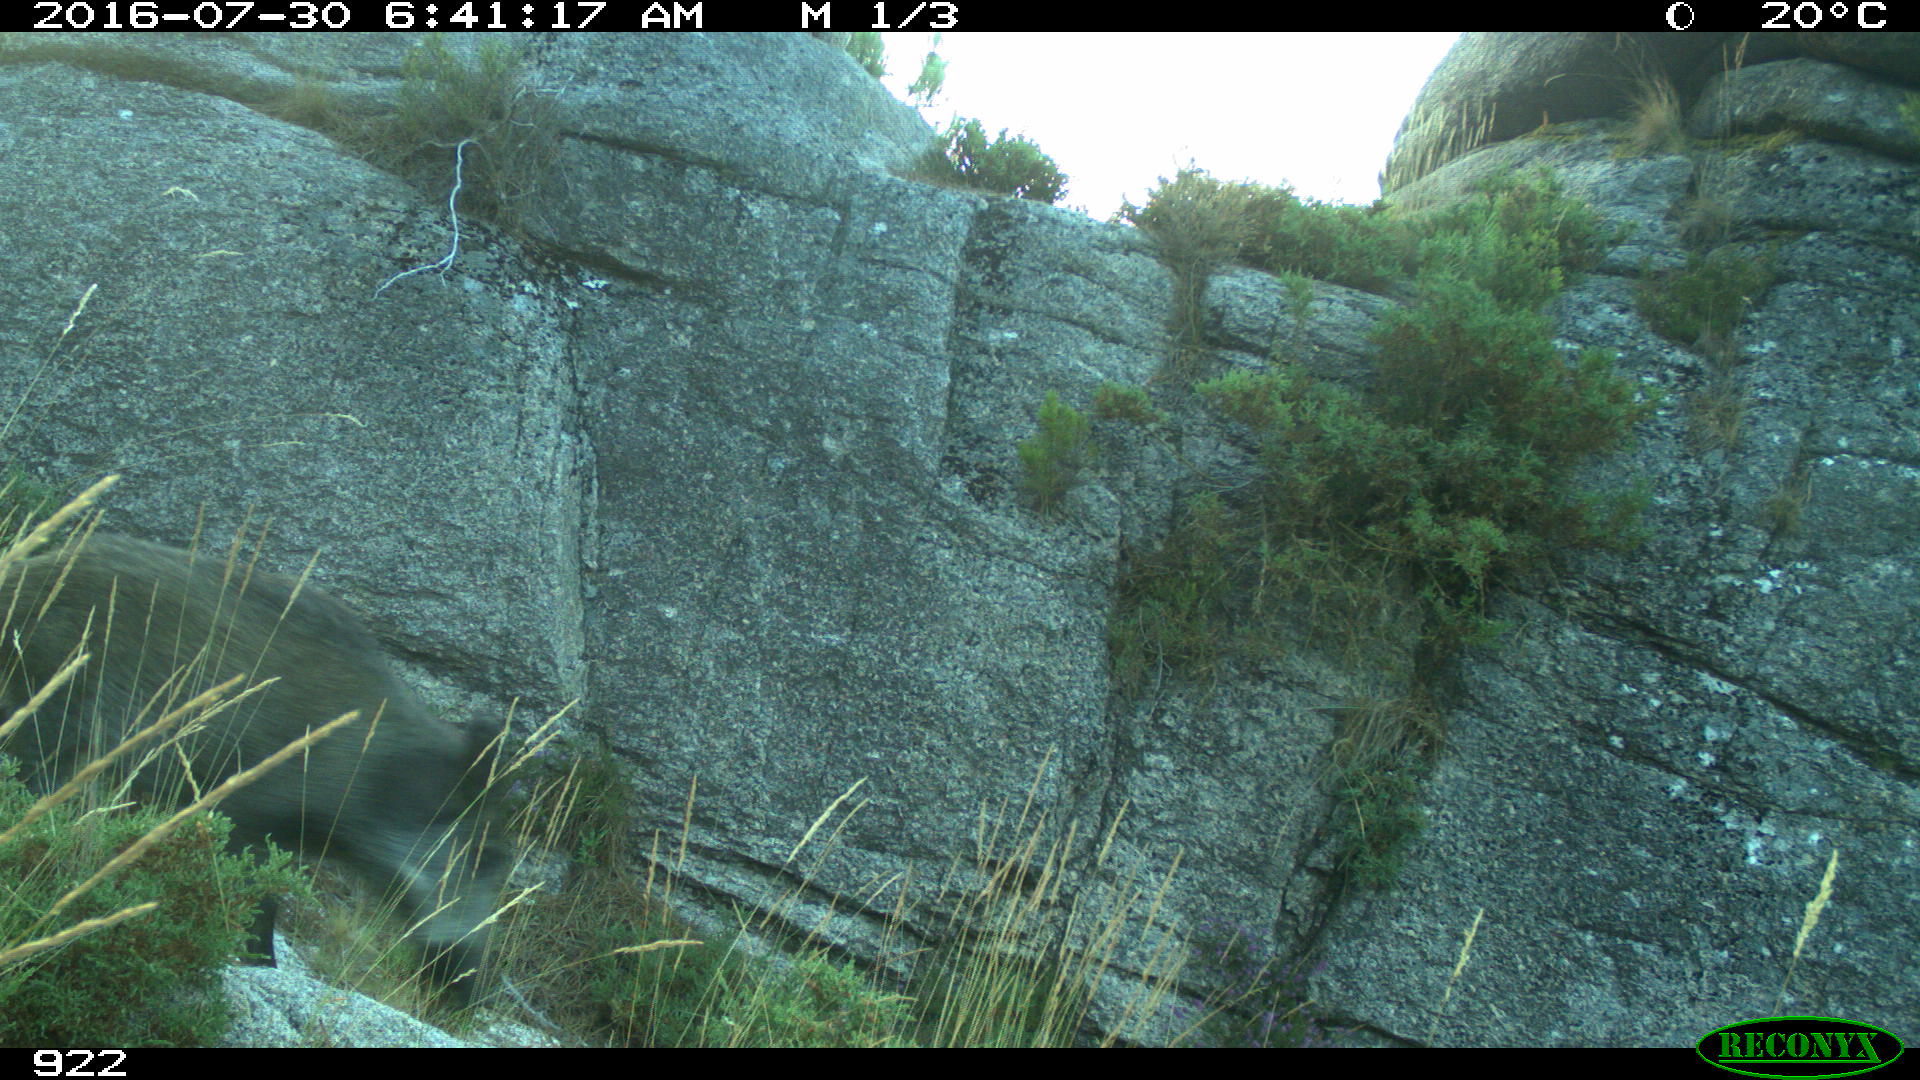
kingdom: Animalia
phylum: Chordata
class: Mammalia
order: Artiodactyla
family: Suidae
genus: Sus
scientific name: Sus scrofa
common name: Wild boar
